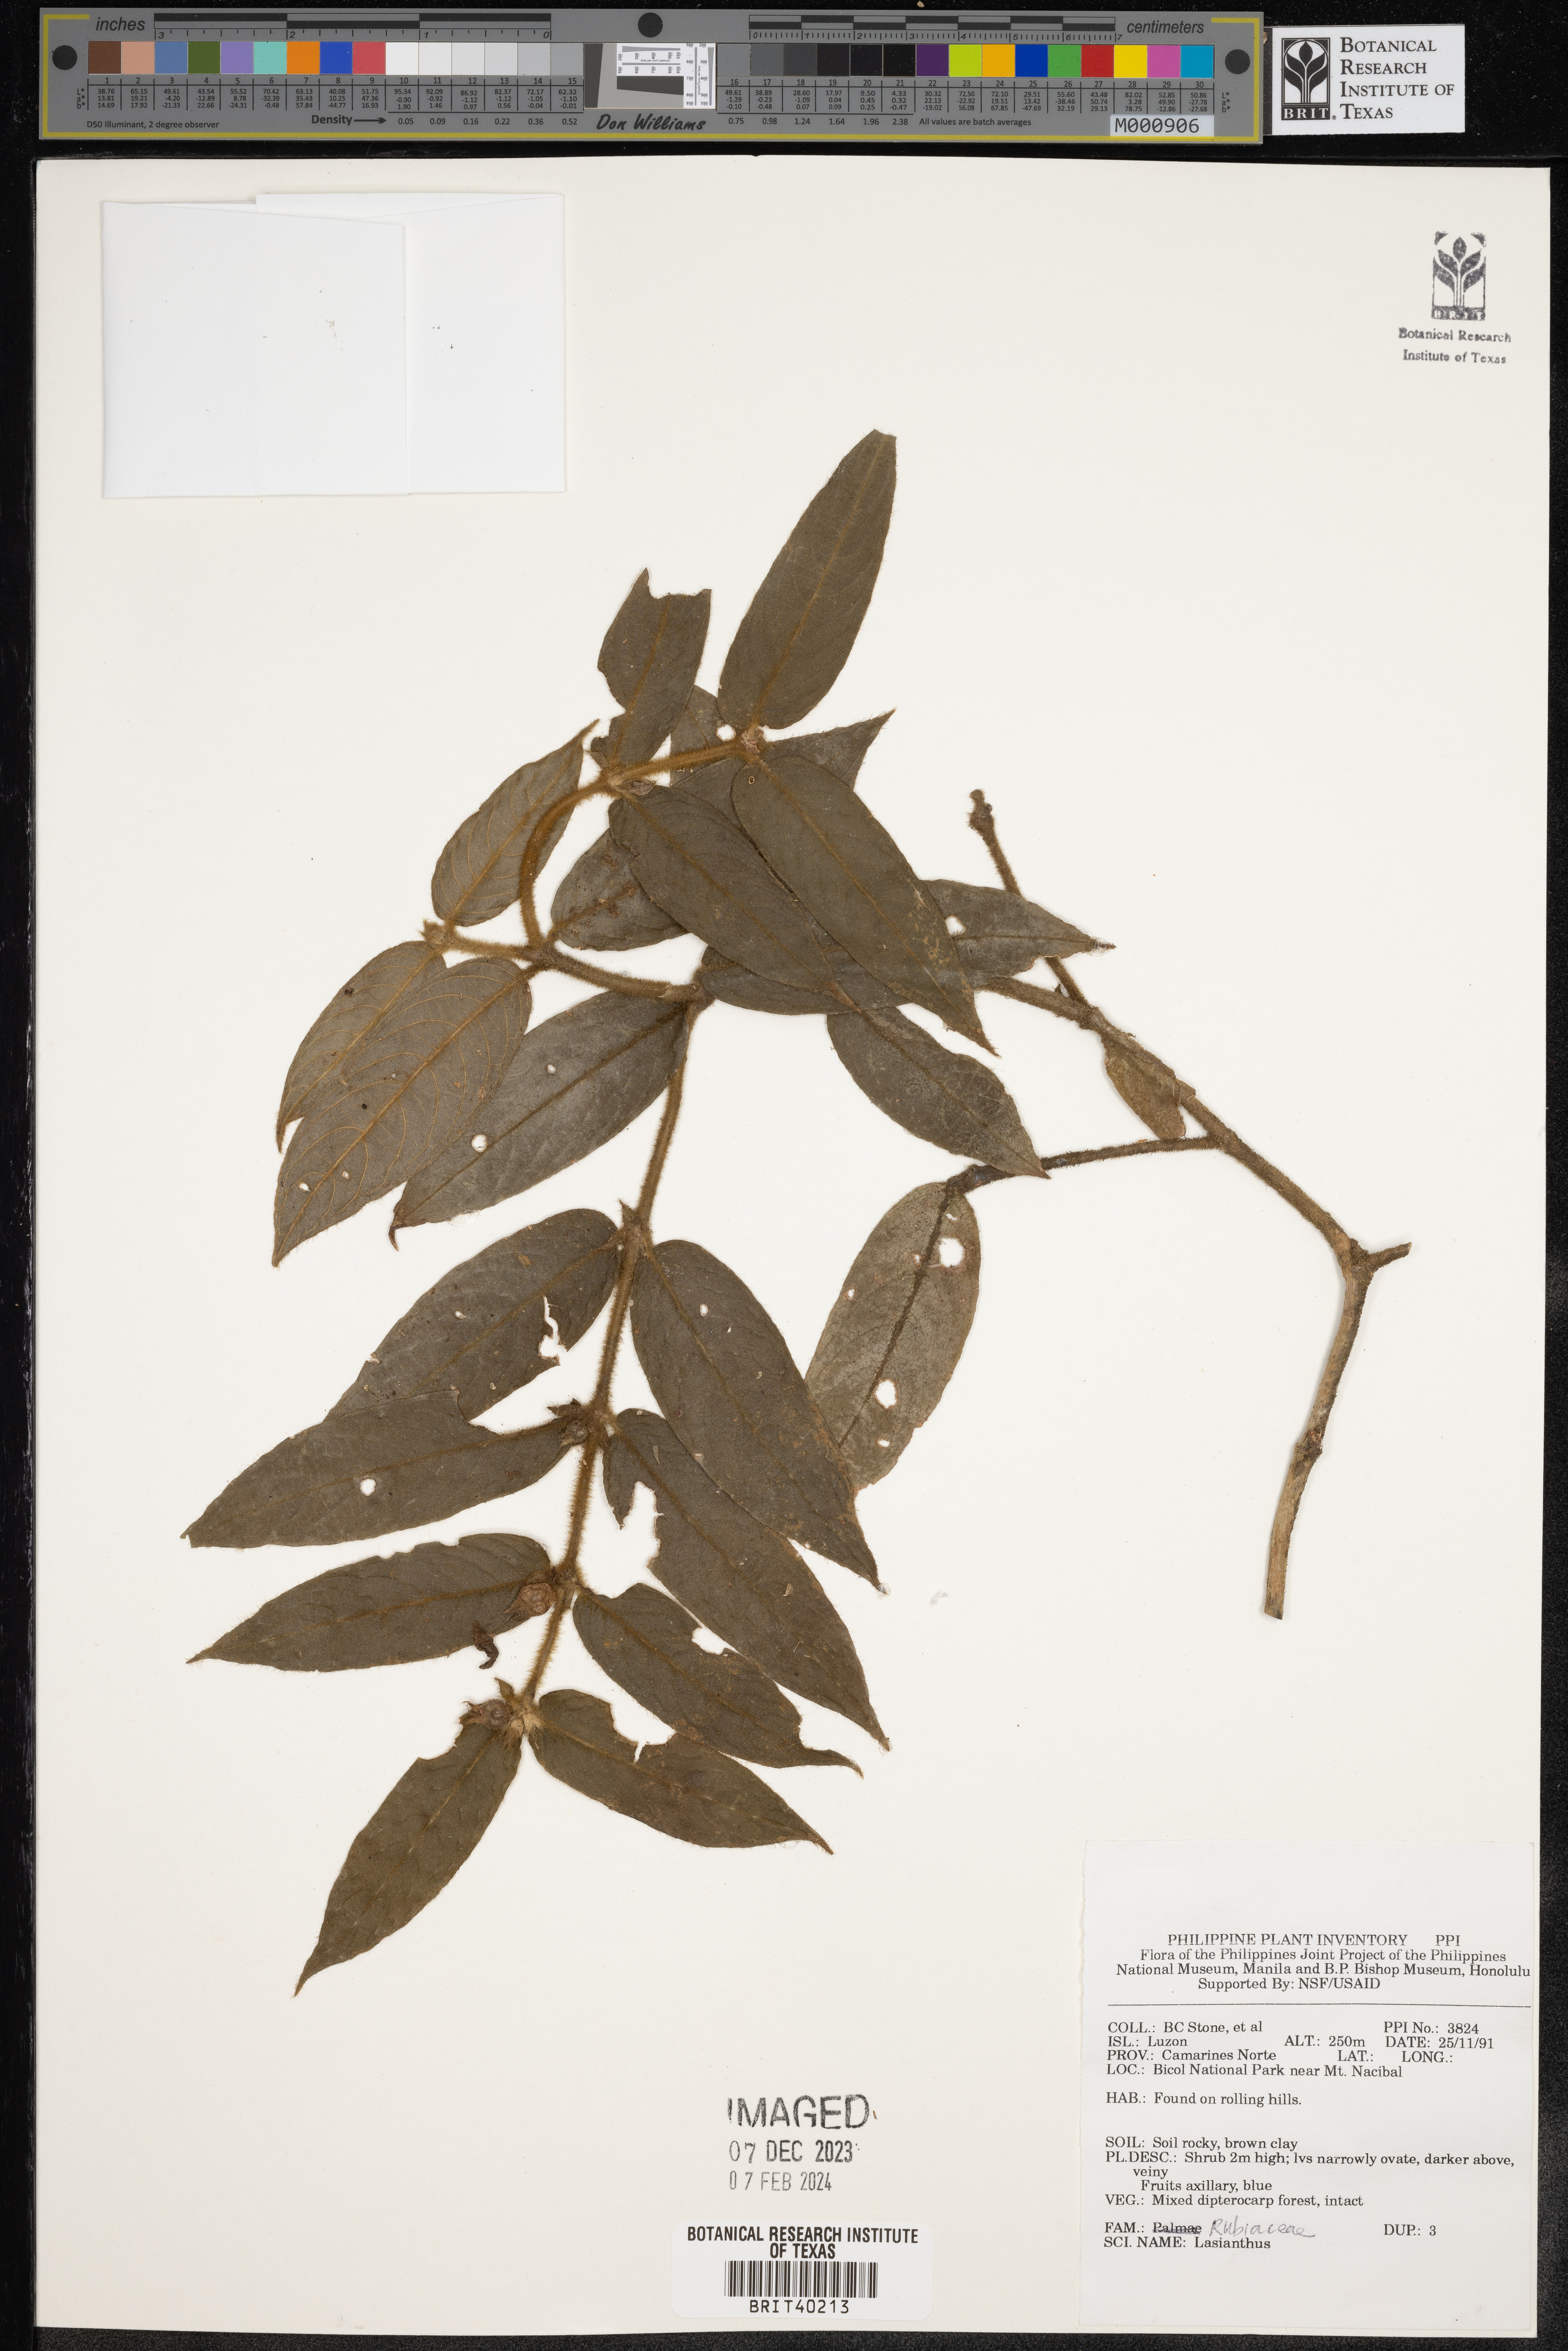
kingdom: Plantae
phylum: Tracheophyta
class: Magnoliopsida
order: Gentianales
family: Rubiaceae
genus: Lasianthus
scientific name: Lasianthus
